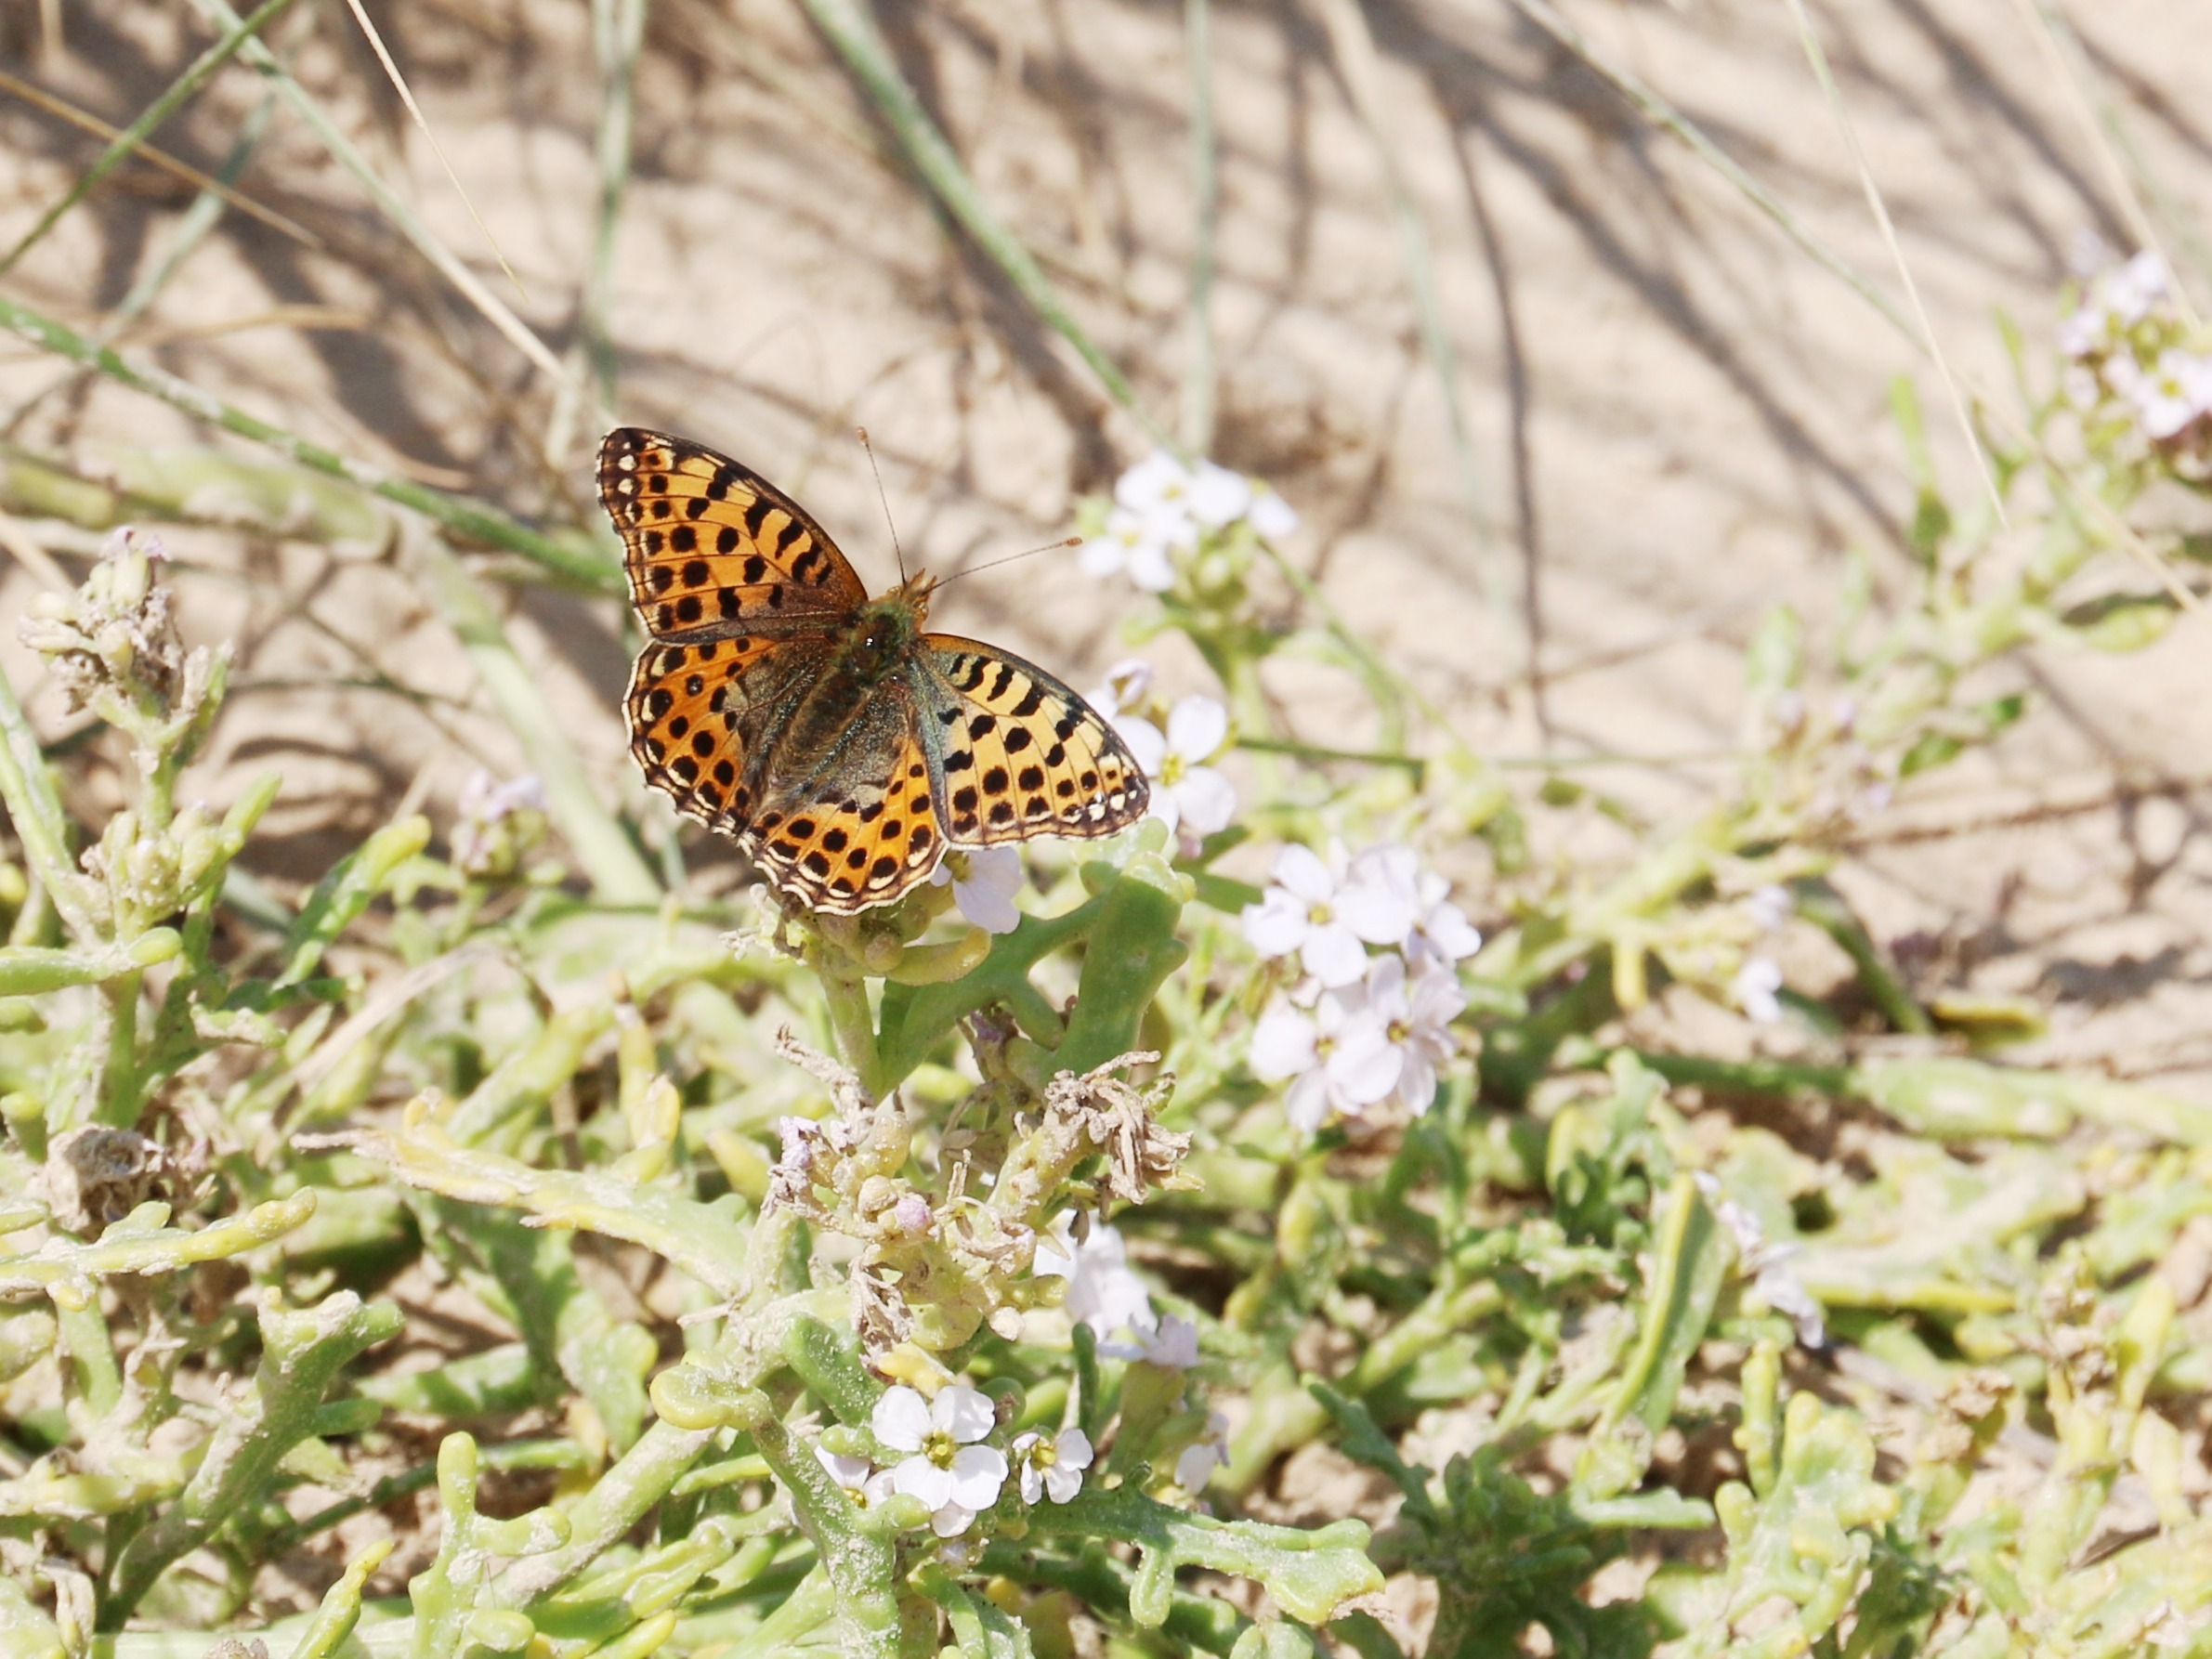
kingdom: Animalia
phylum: Arthropoda
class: Insecta
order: Lepidoptera
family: Nymphalidae
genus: Issoria
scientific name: Issoria lathonia
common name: Storplettet perlemorsommerfugl
